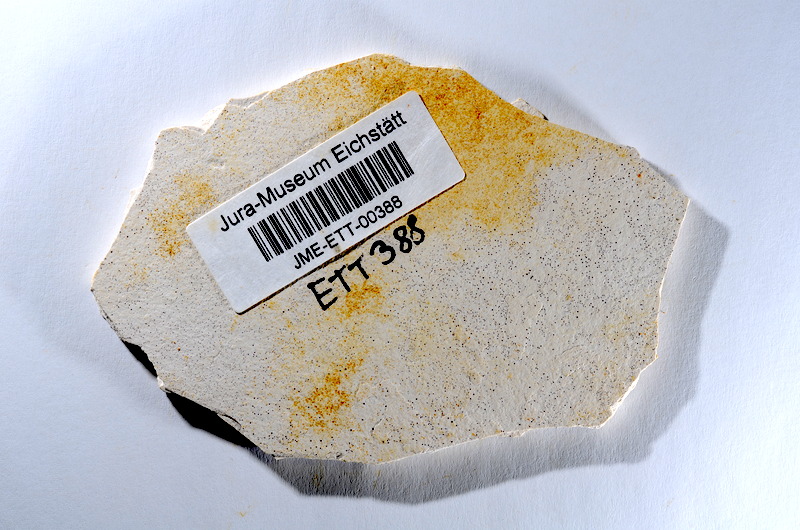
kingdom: Animalia
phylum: Chordata
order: Salmoniformes
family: Orthogonikleithridae
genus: Orthogonikleithrus
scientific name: Orthogonikleithrus hoelli
